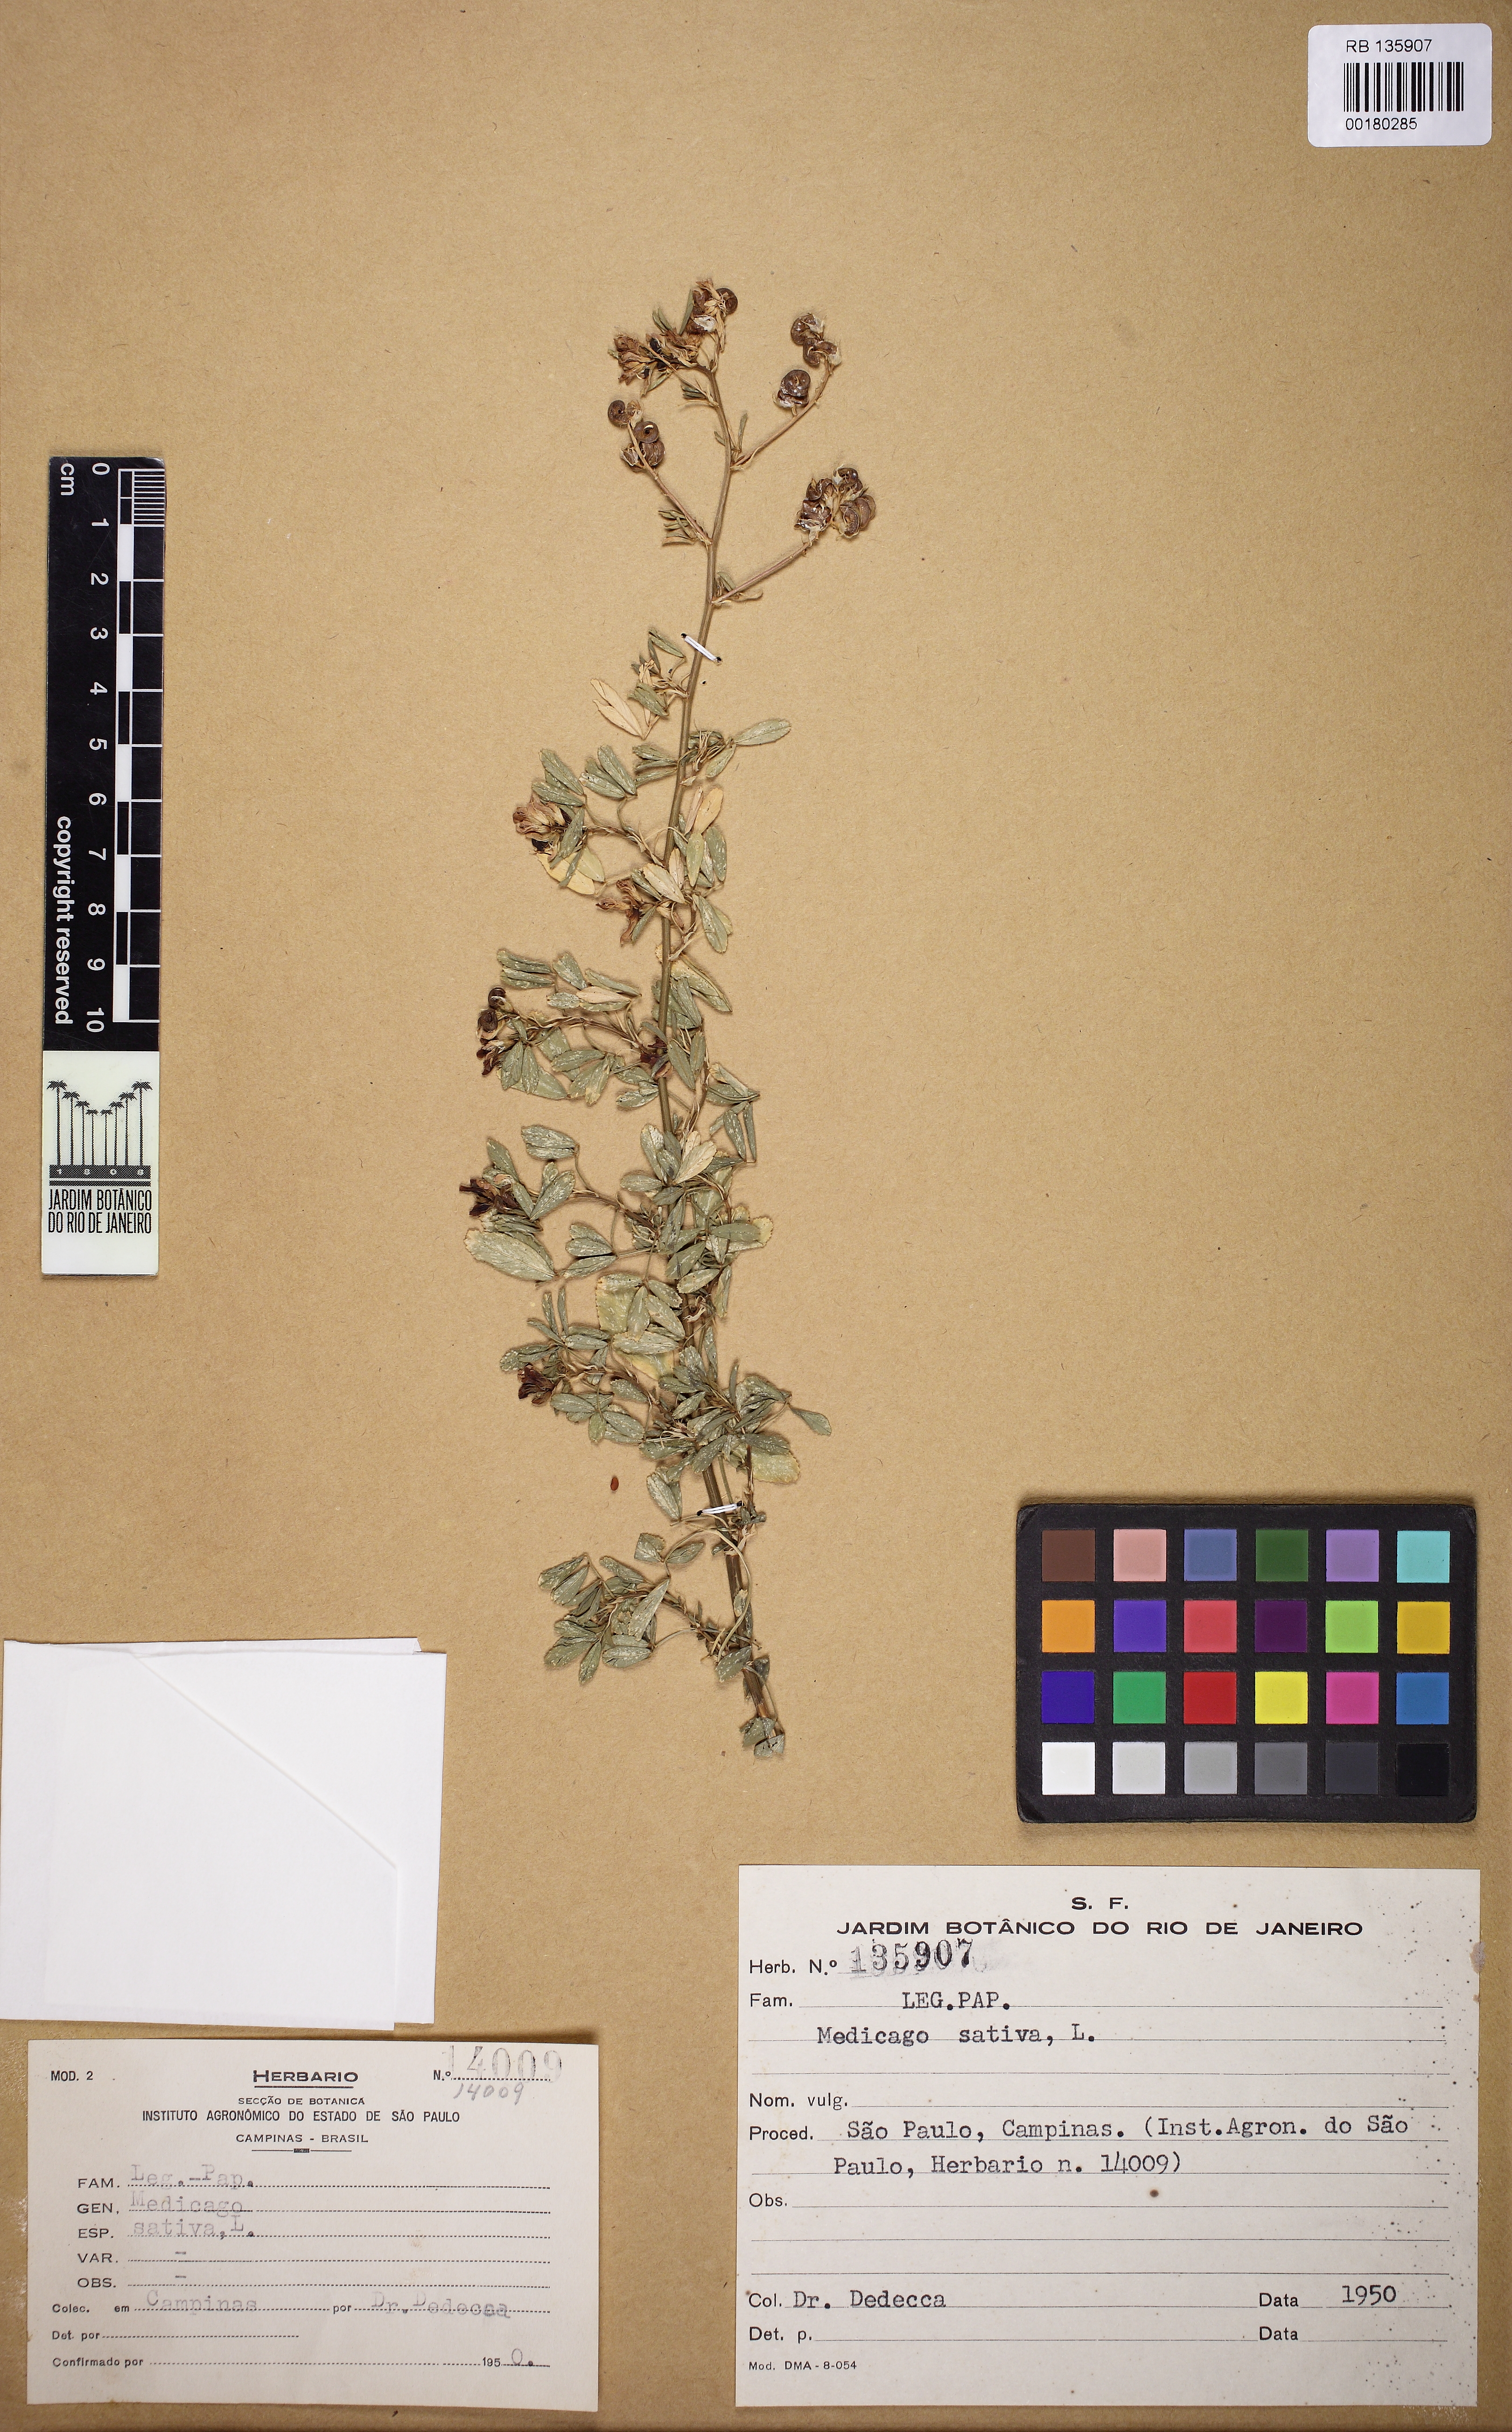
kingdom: Plantae
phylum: Tracheophyta
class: Magnoliopsida
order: Fabales
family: Fabaceae
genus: Medicago
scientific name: Medicago sativa
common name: Alfalfa
